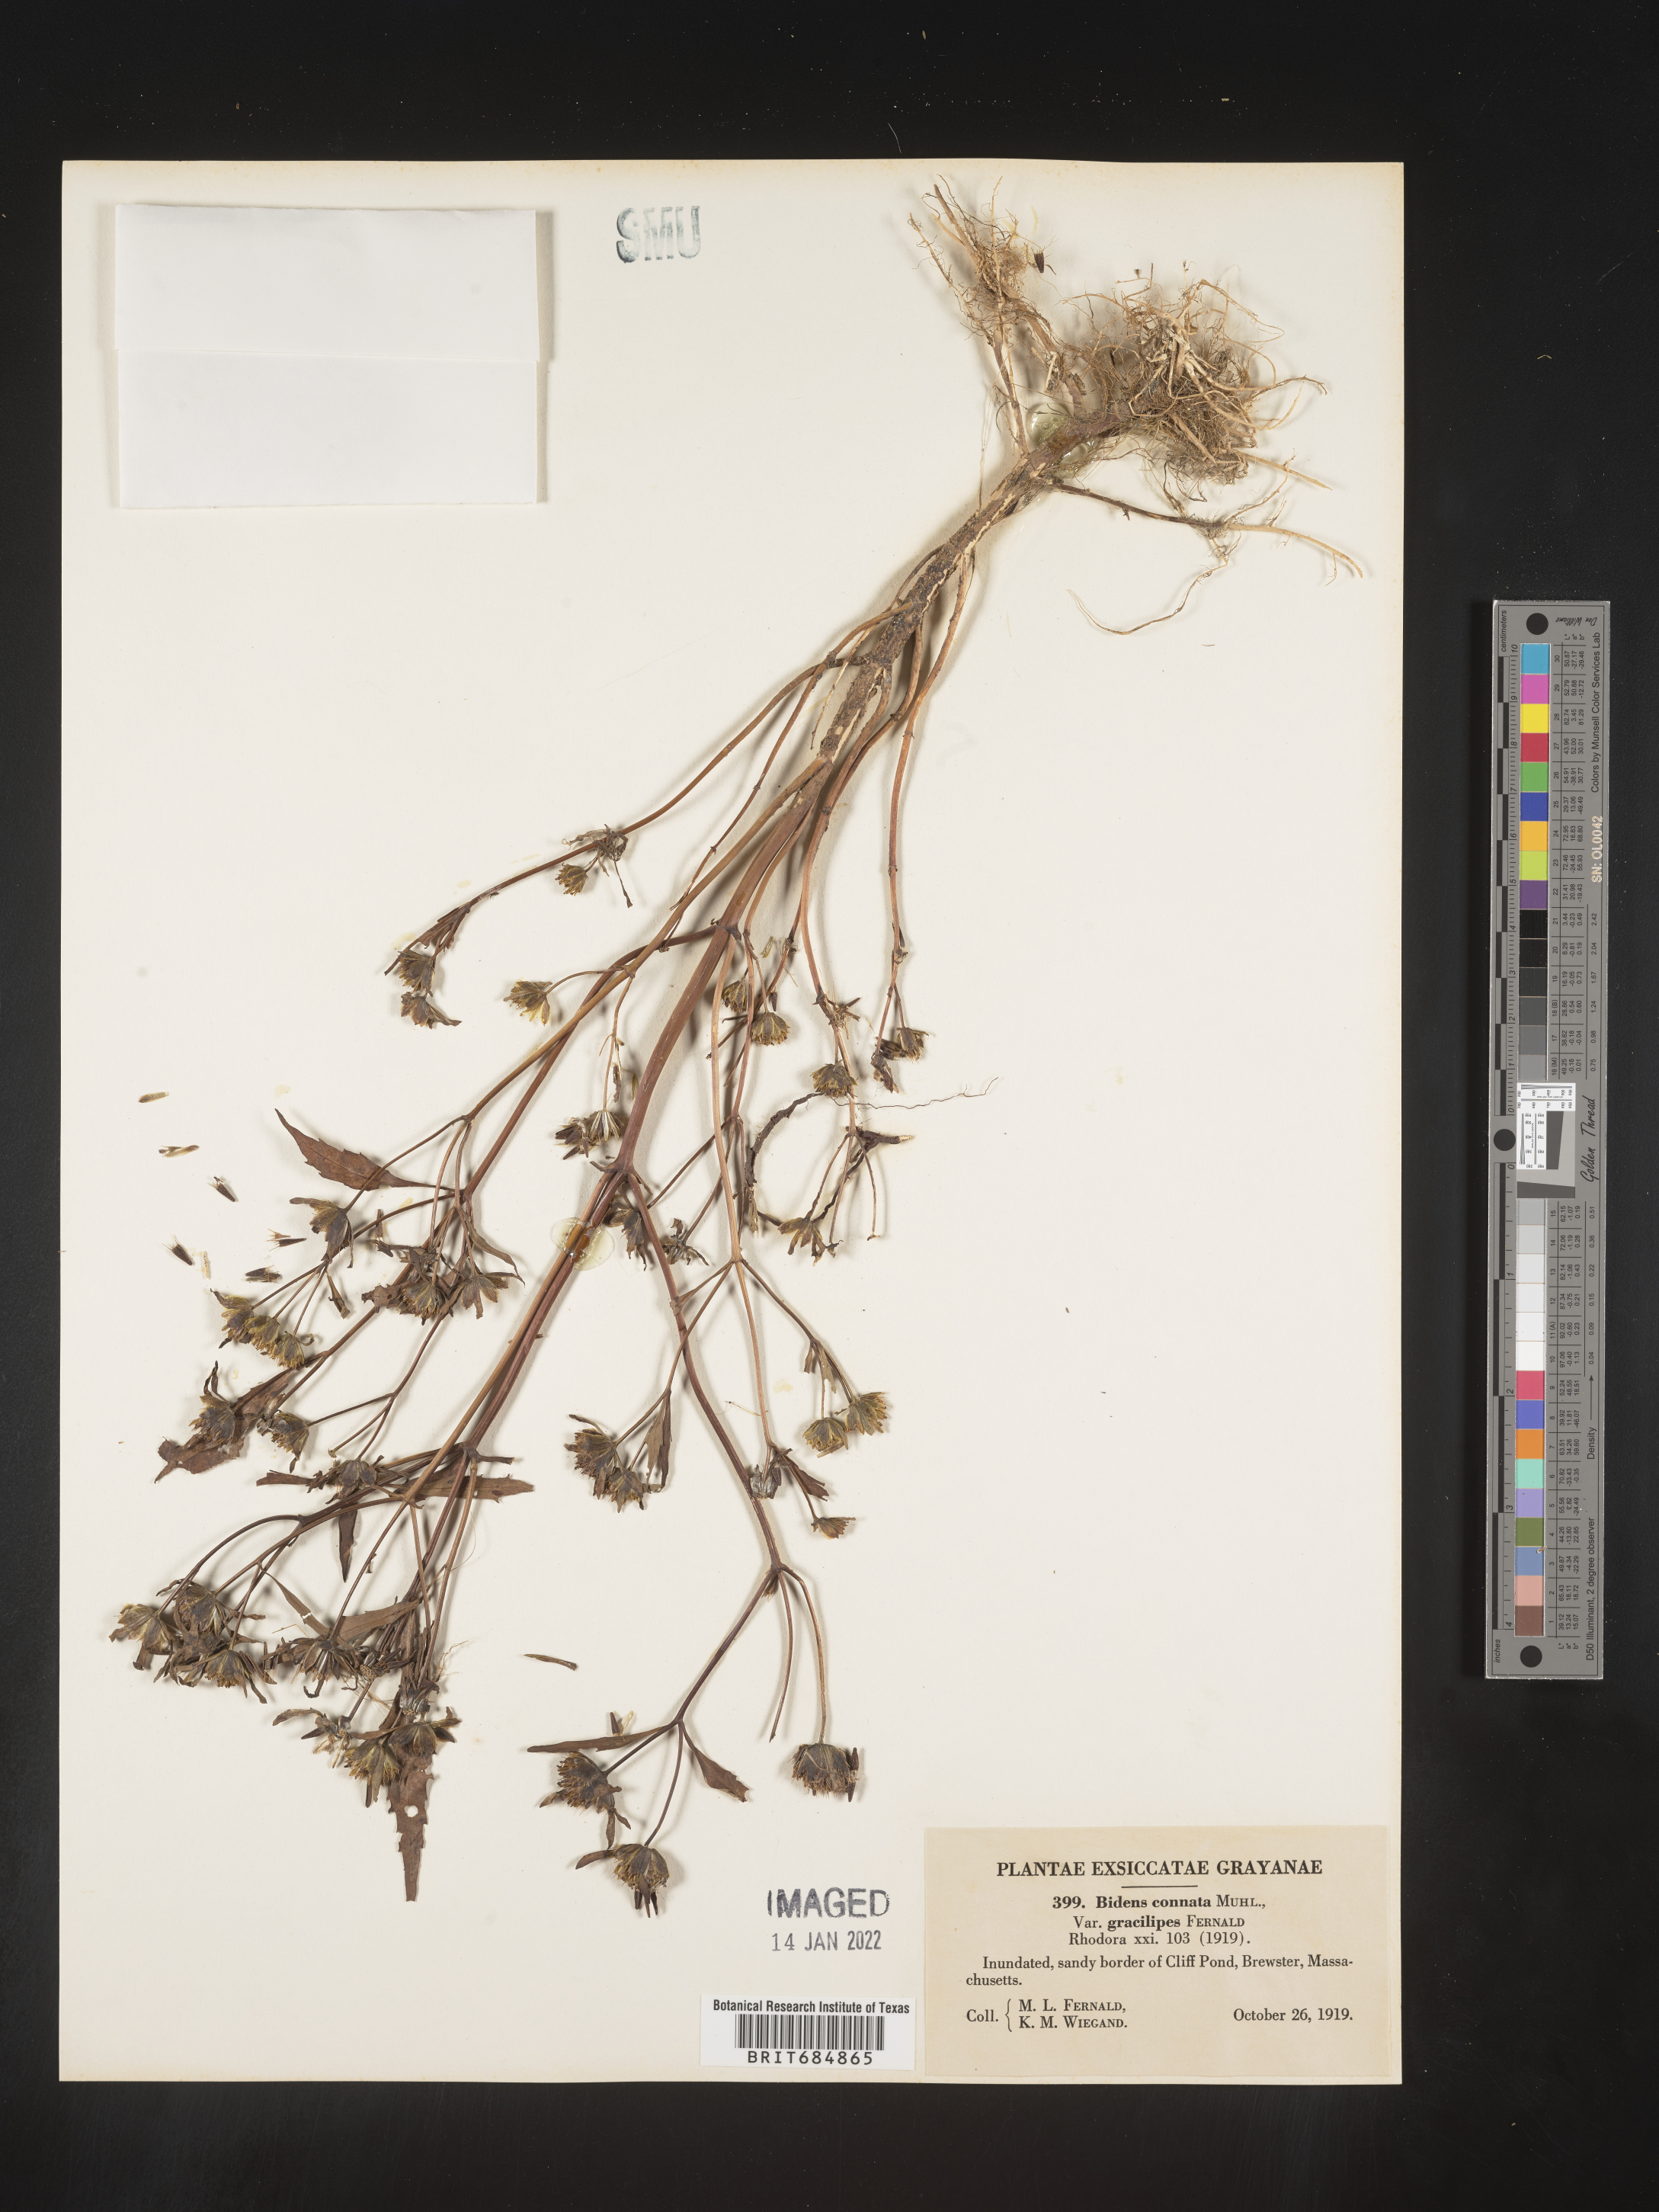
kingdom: Plantae
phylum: Tracheophyta
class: Magnoliopsida
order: Asterales
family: Asteraceae
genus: Bidens
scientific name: Bidens tripartita
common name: Trifid bur-marigold
